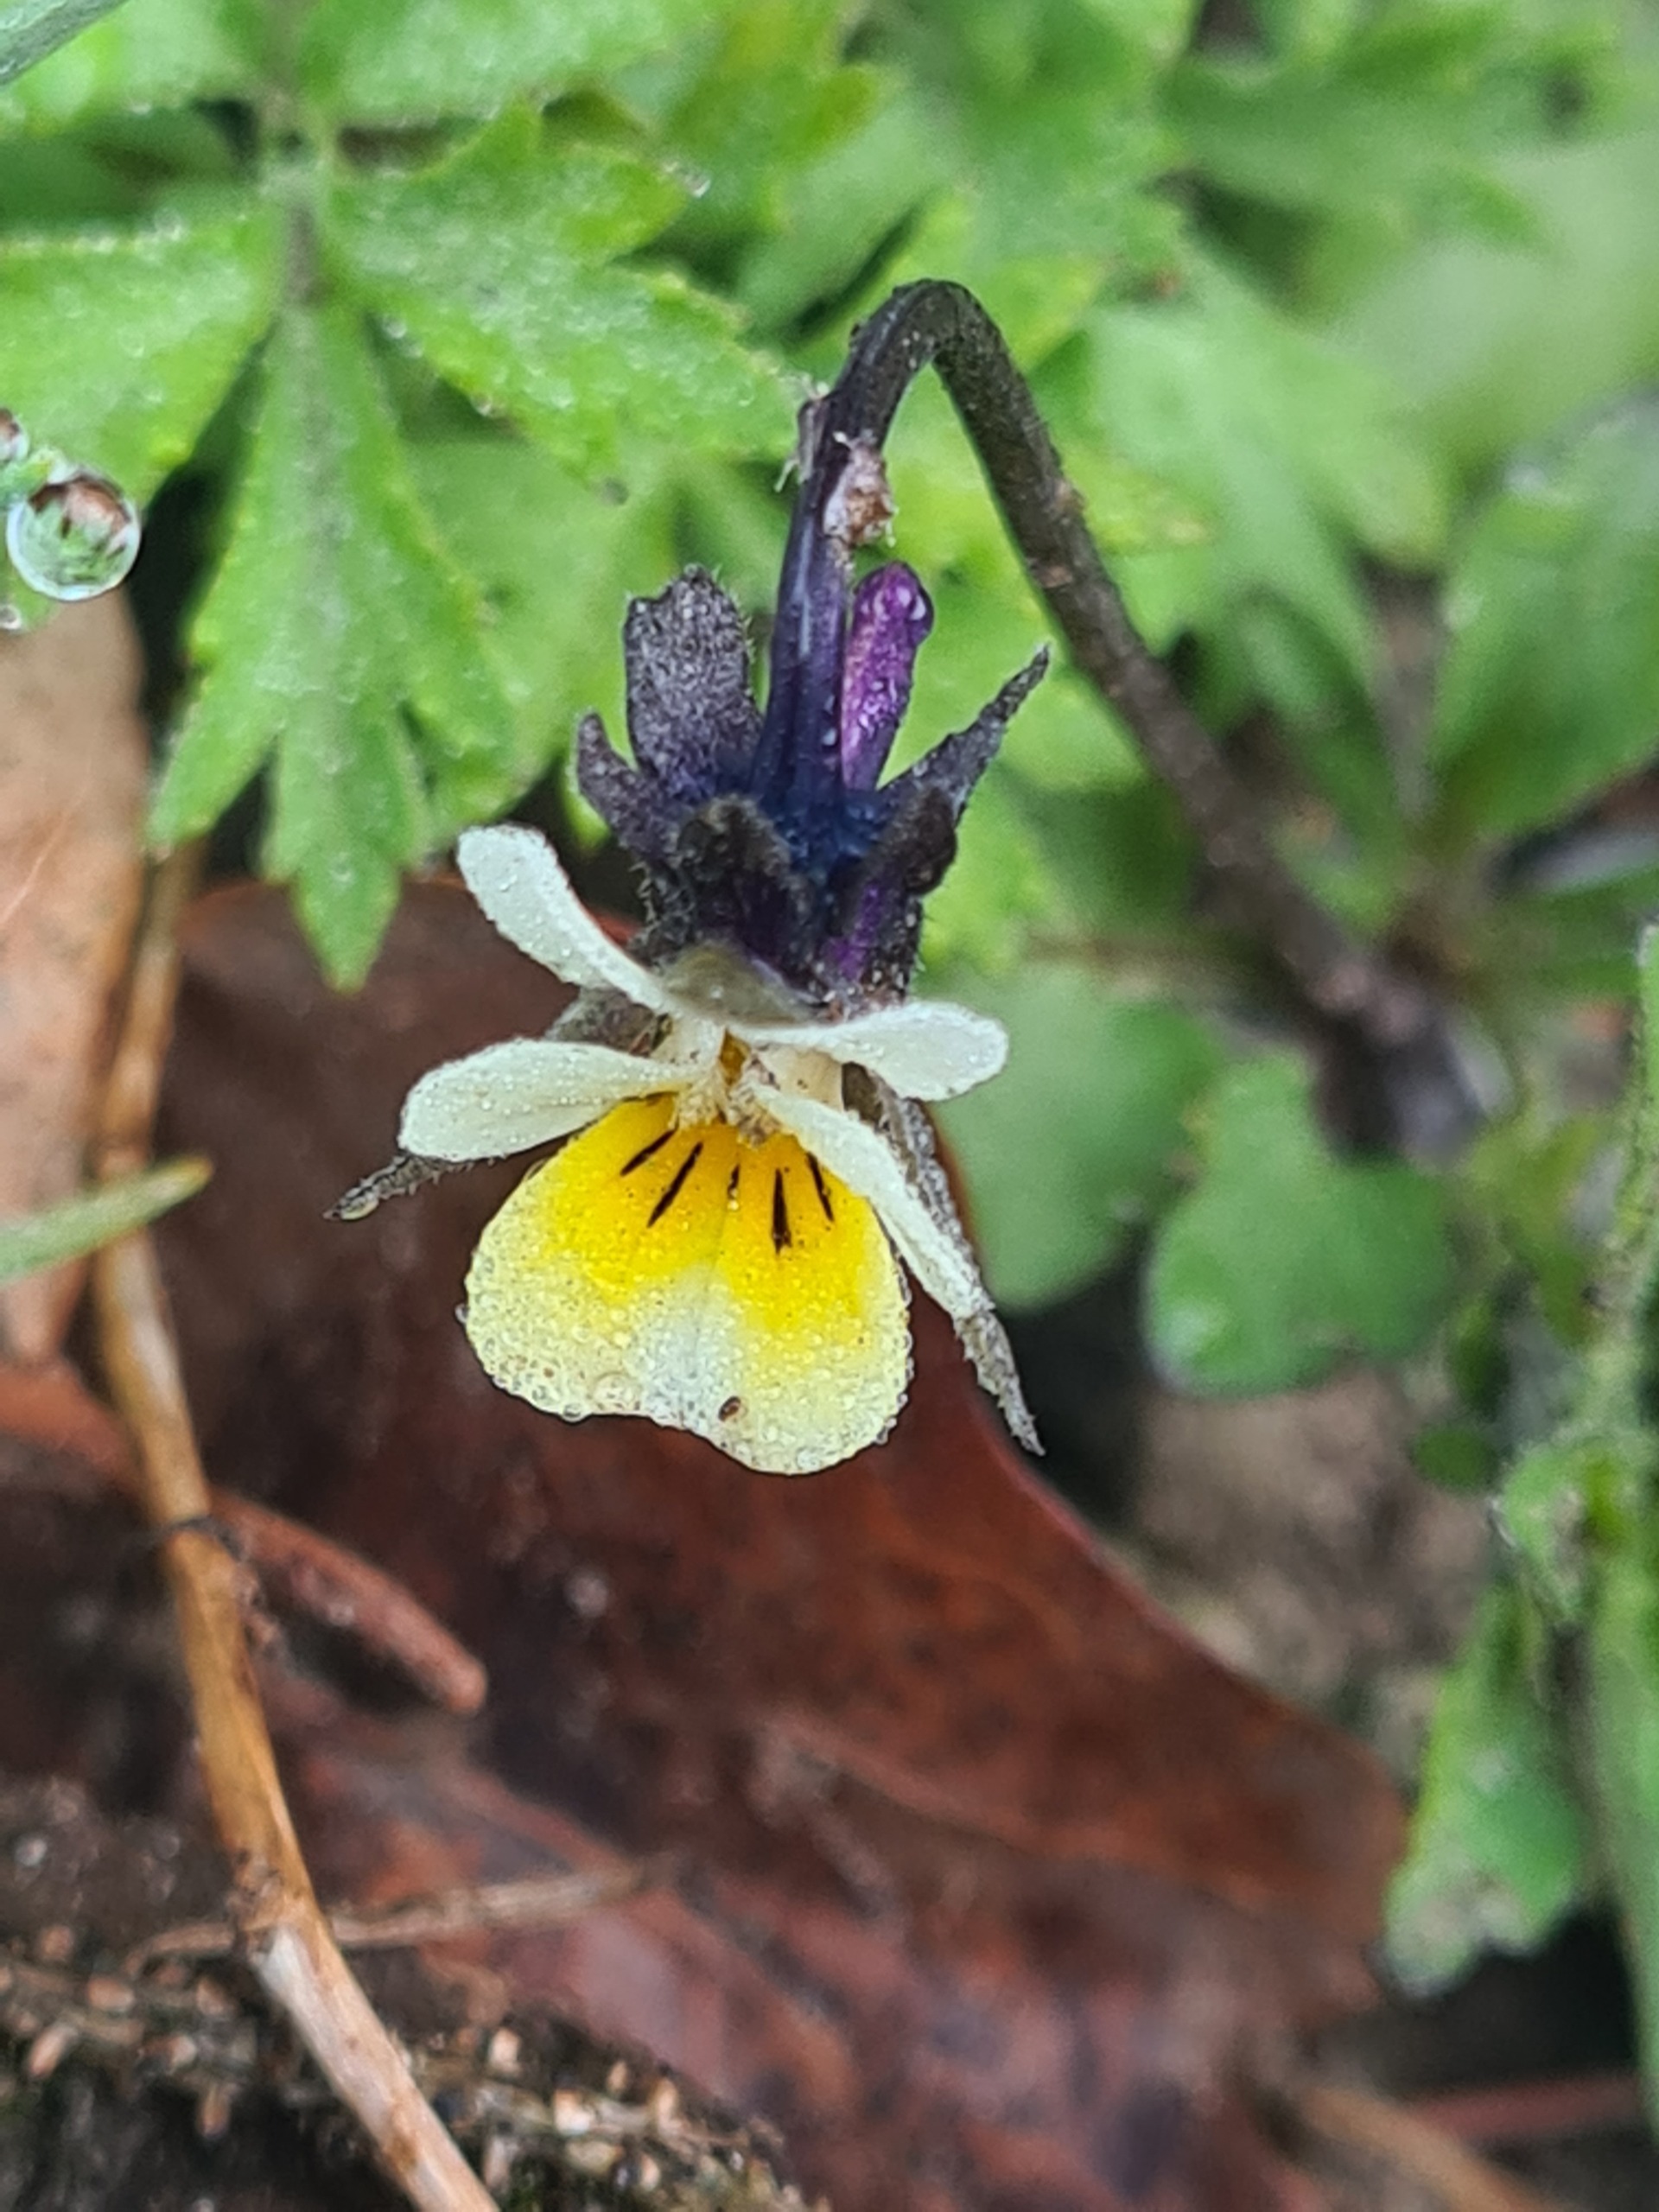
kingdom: Plantae
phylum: Tracheophyta
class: Magnoliopsida
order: Malpighiales
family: Violaceae
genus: Viola
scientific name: Viola arvensis
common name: Ager-stedmoderblomst
